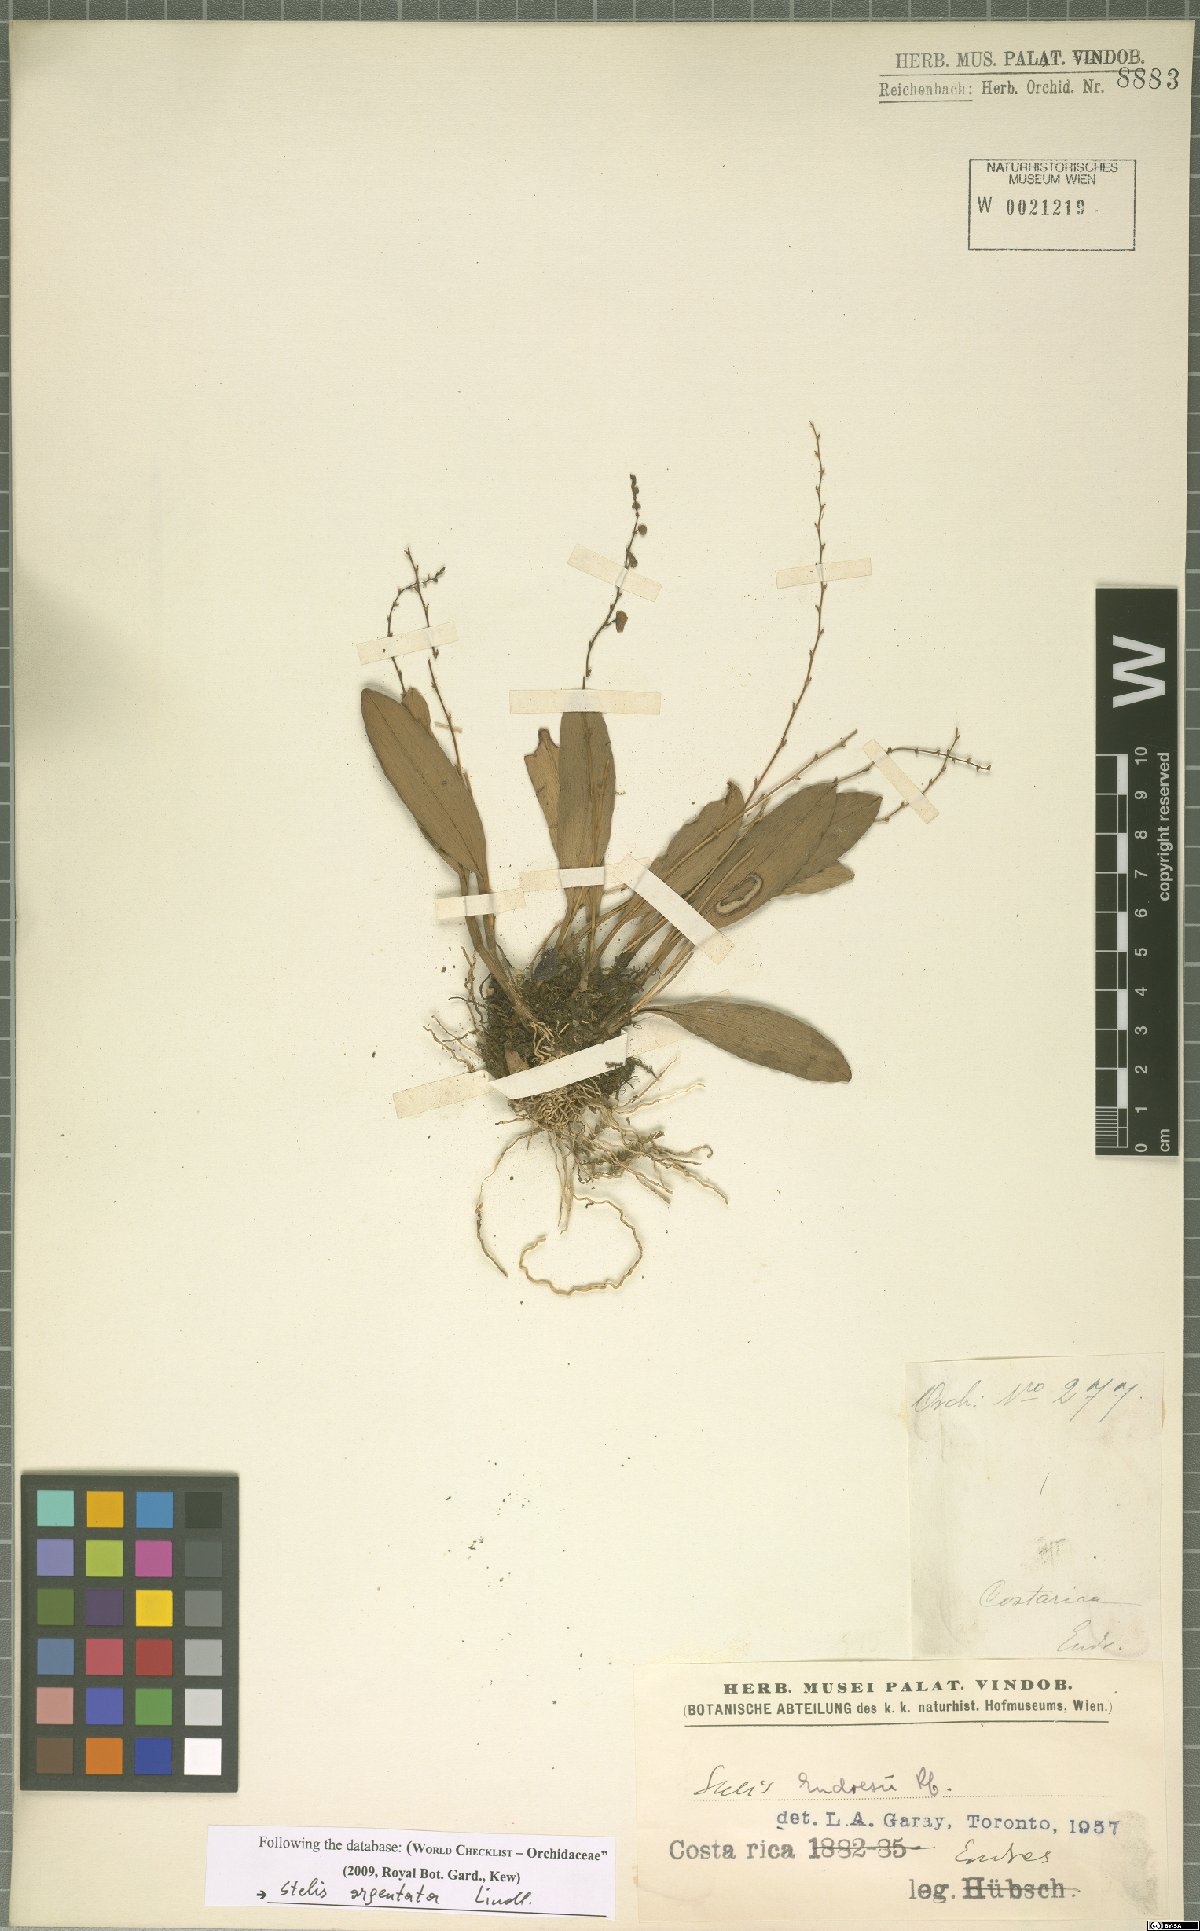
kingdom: Plantae
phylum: Tracheophyta
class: Liliopsida
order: Asparagales
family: Orchidaceae
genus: Stelis
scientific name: Stelis argentata
